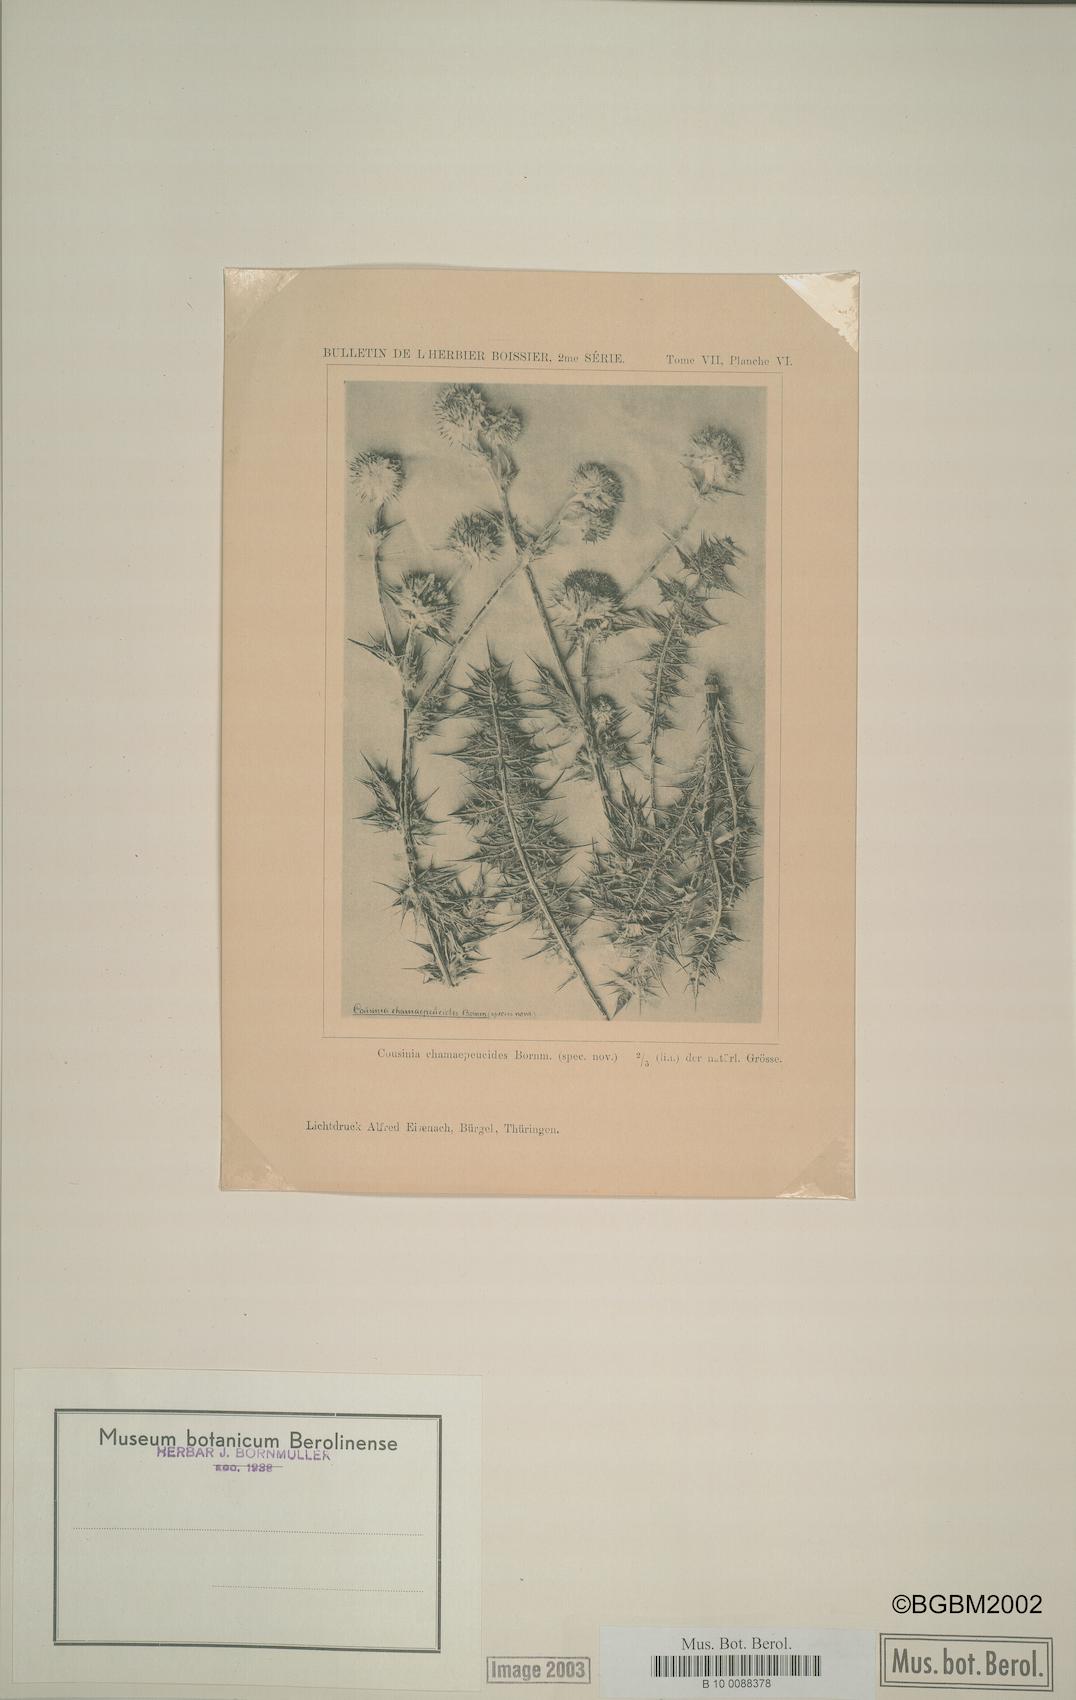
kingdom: Plantae
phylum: Tracheophyta
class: Magnoliopsida
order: Asterales
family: Asteraceae
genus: Cousinia
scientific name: Cousinia chamaepeuce
